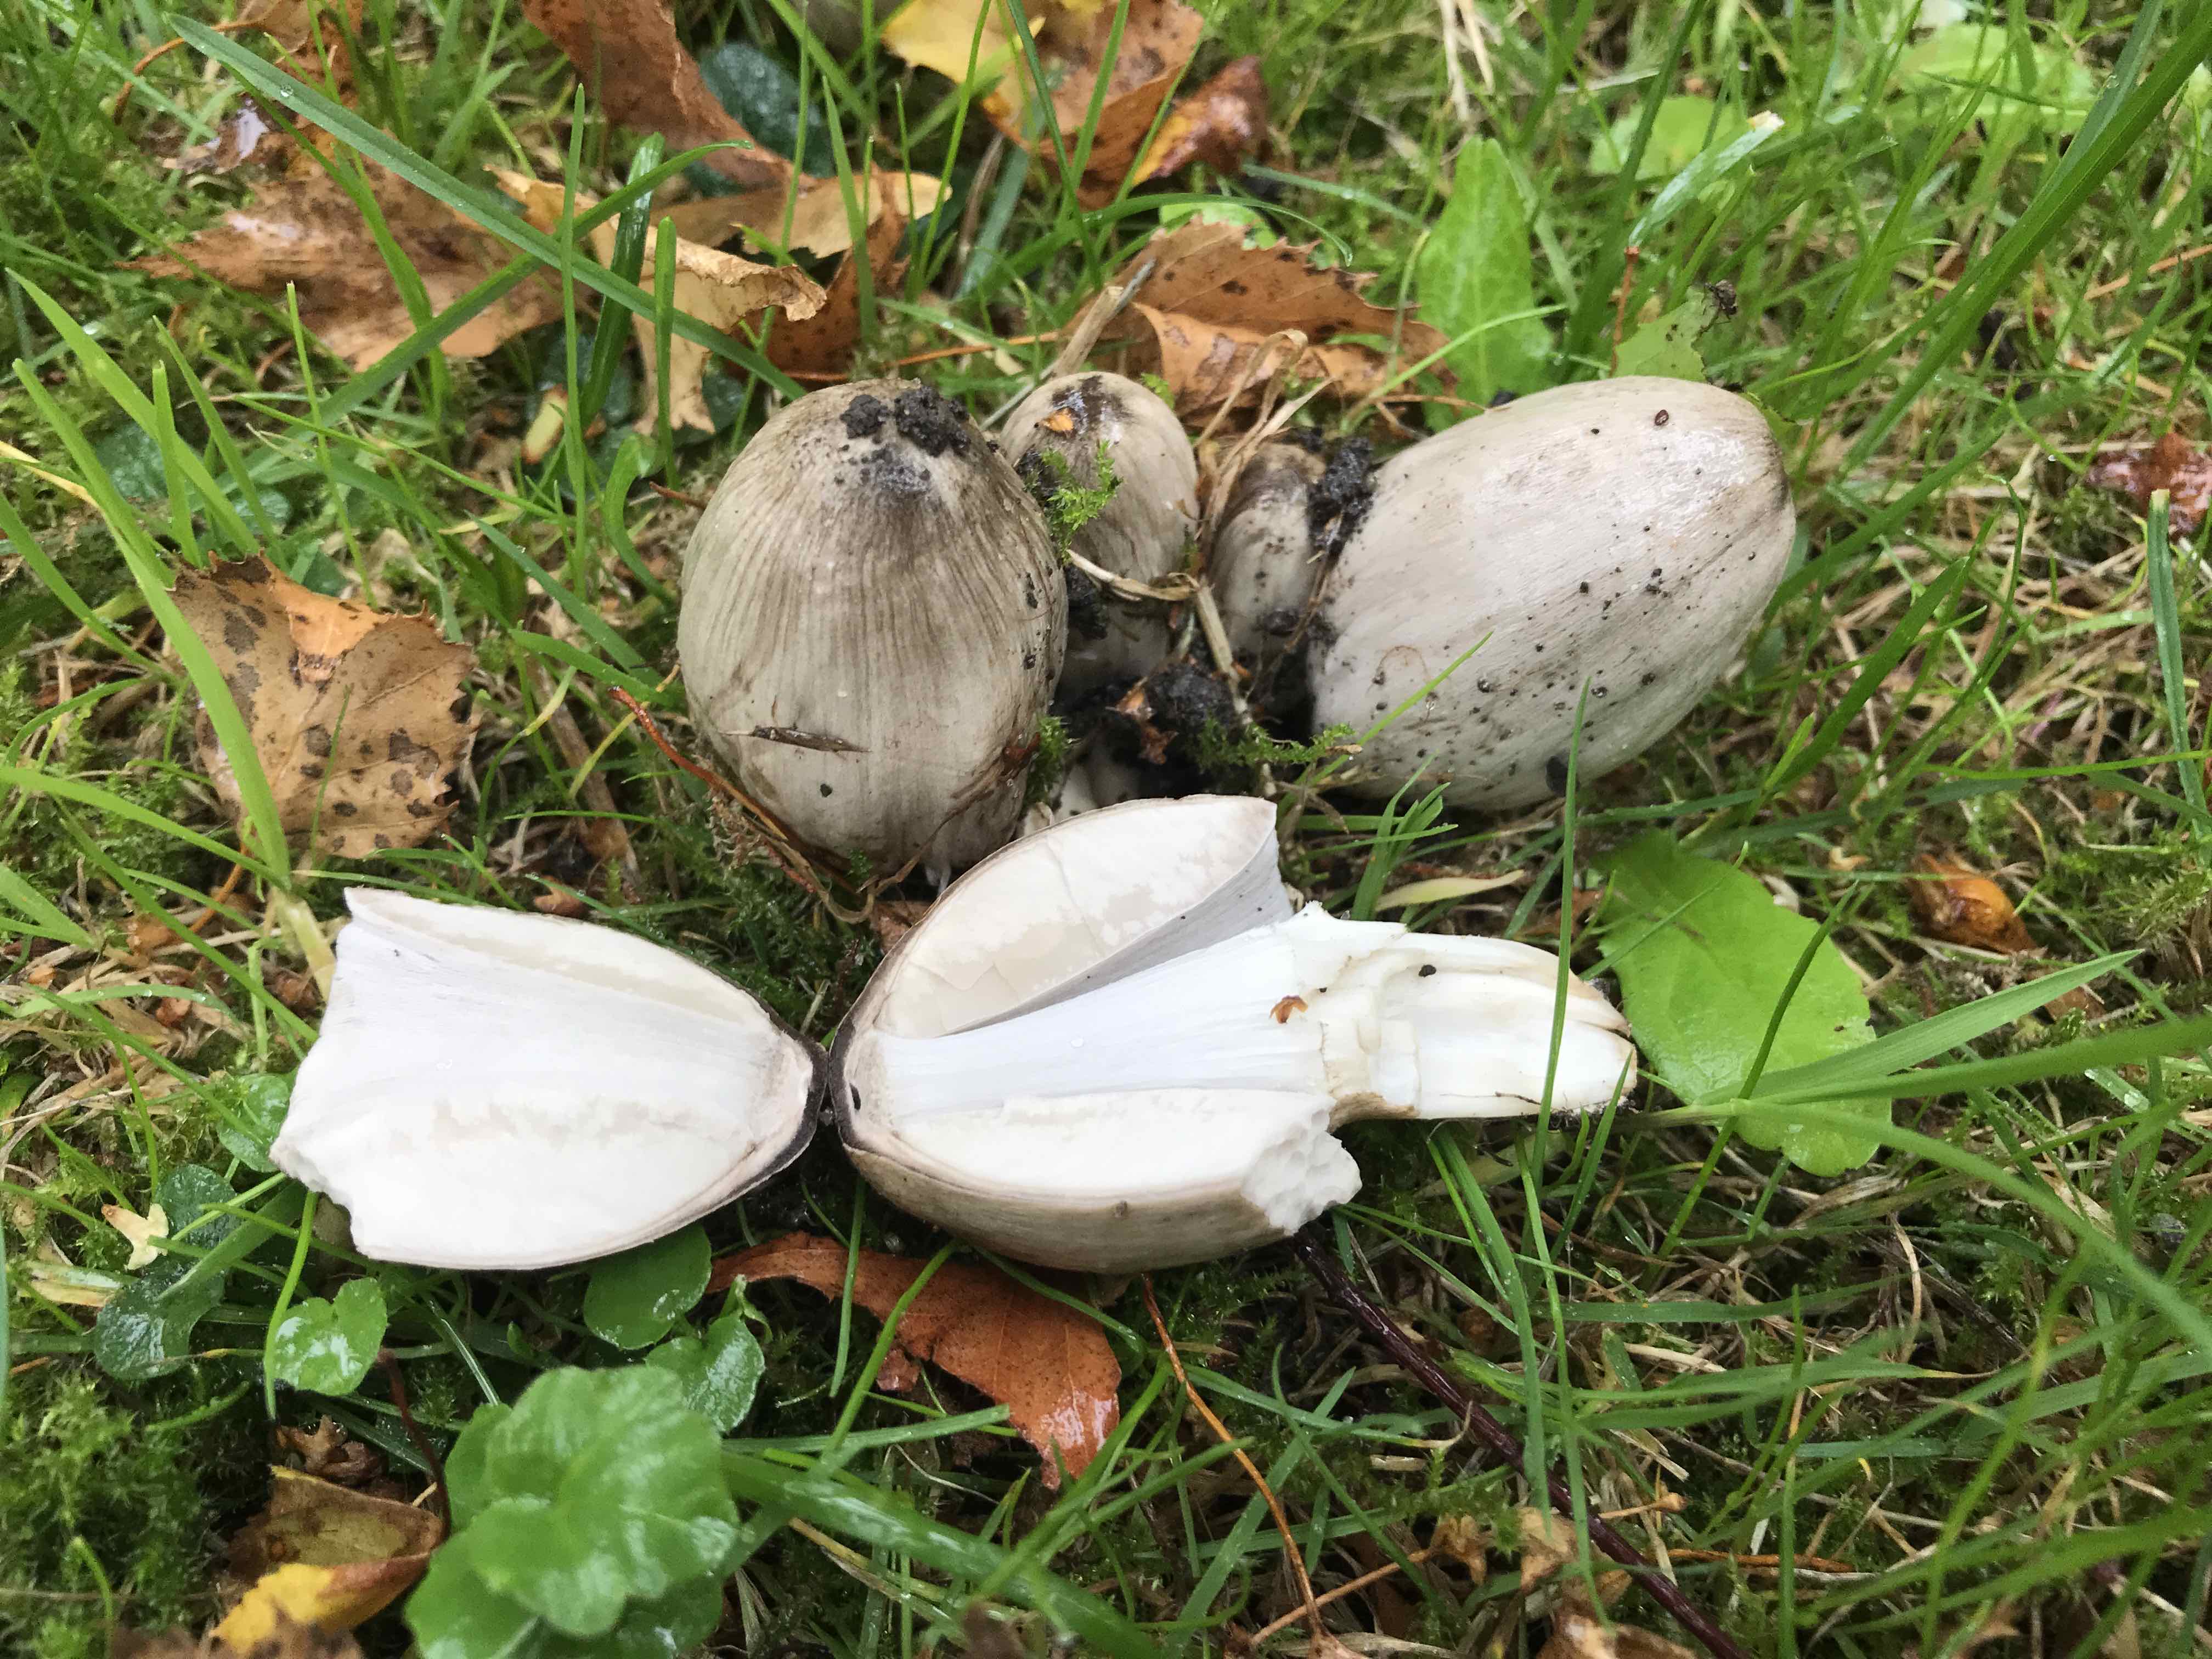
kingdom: Fungi
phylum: Basidiomycota
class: Agaricomycetes
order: Agaricales
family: Psathyrellaceae
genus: Coprinopsis
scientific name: Coprinopsis atramentaria
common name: almindelig blækhat
